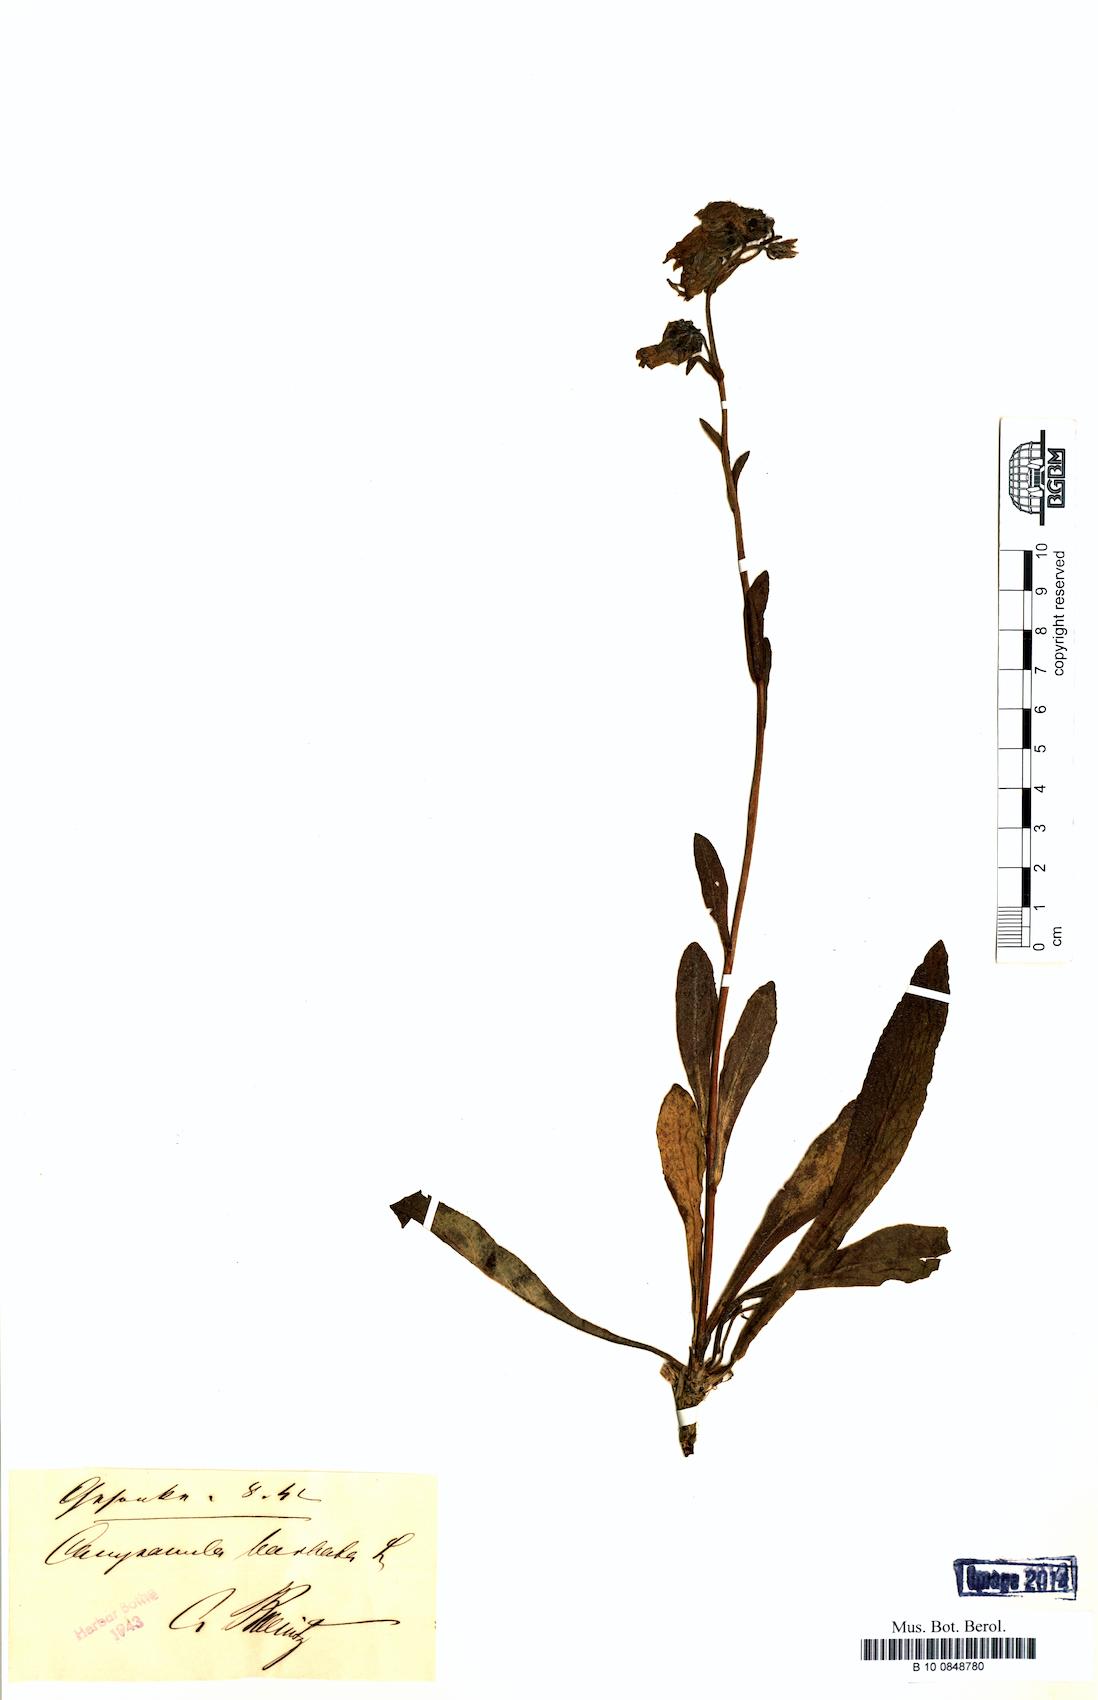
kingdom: Plantae
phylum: Tracheophyta
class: Magnoliopsida
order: Asterales
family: Campanulaceae
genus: Campanula
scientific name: Campanula barbata
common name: Bearded bellflower
